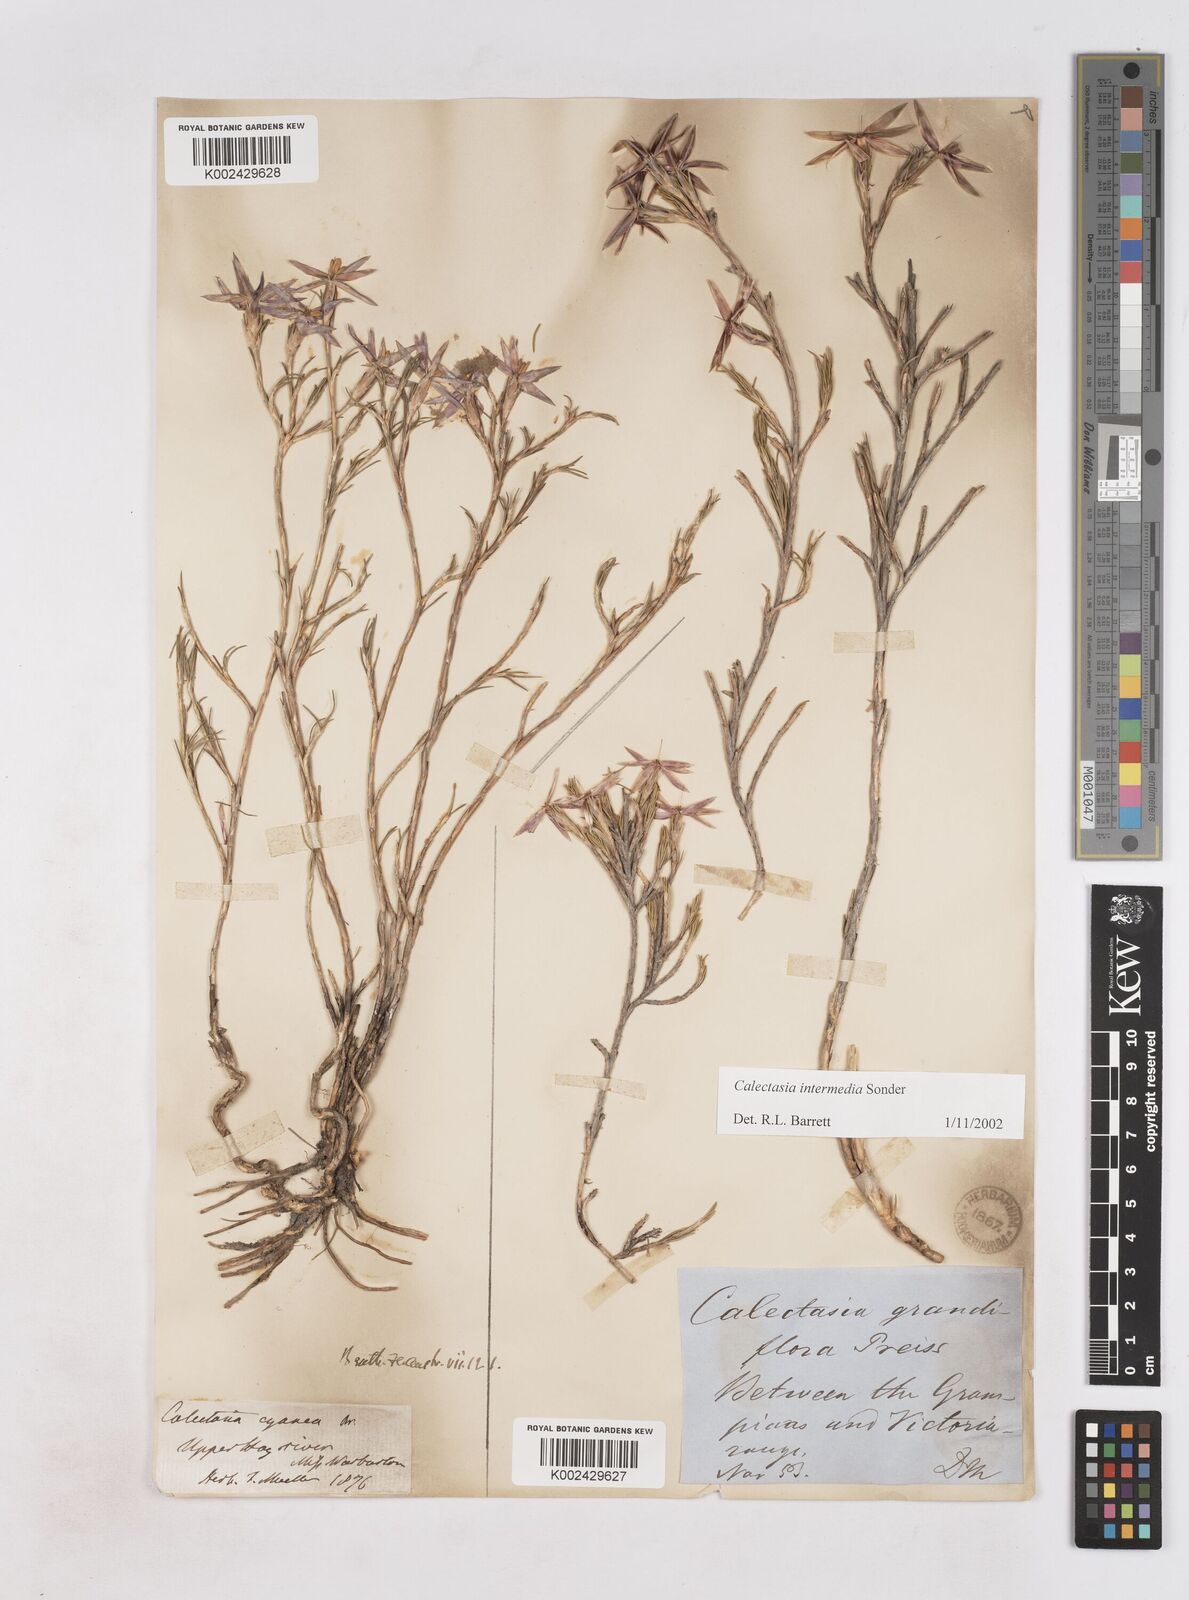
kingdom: Plantae
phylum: Tracheophyta
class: Liliopsida
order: Arecales
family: Dasypogonaceae
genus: Calectasia
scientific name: Calectasia intermedia
